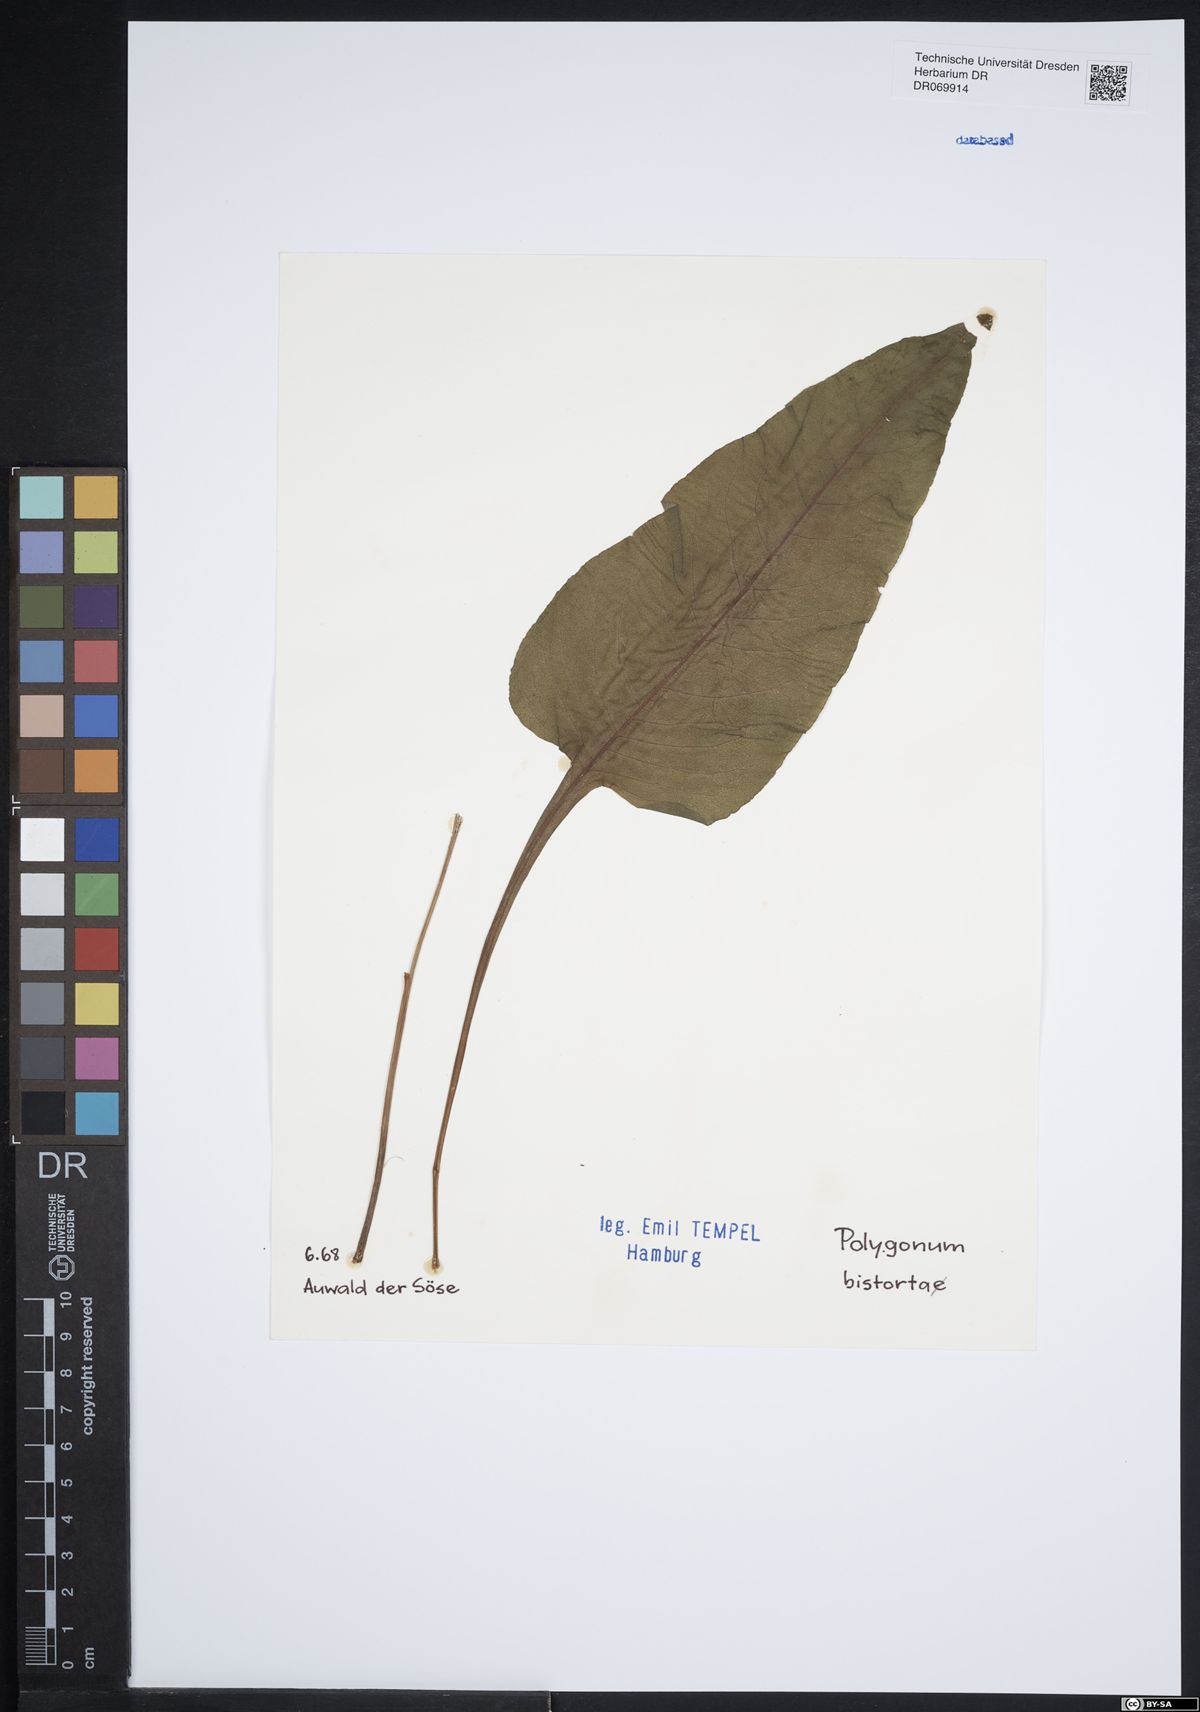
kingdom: Plantae
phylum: Tracheophyta
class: Magnoliopsida
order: Caryophyllales
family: Polygonaceae
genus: Polygonum
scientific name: Polygonum bistorta
